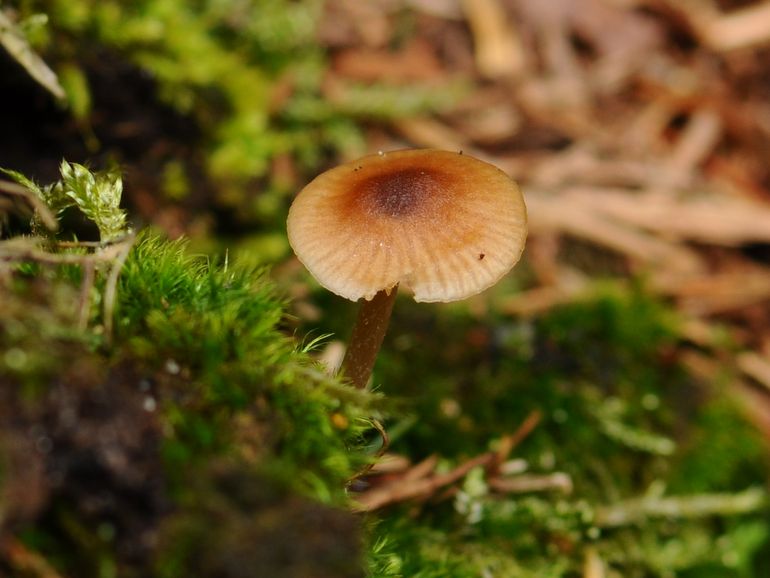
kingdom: Fungi
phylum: Basidiomycota
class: Agaricomycetes
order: Agaricales
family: Entolomataceae
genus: Entoloma
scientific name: Entoloma cetratum
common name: voks-rødblad
